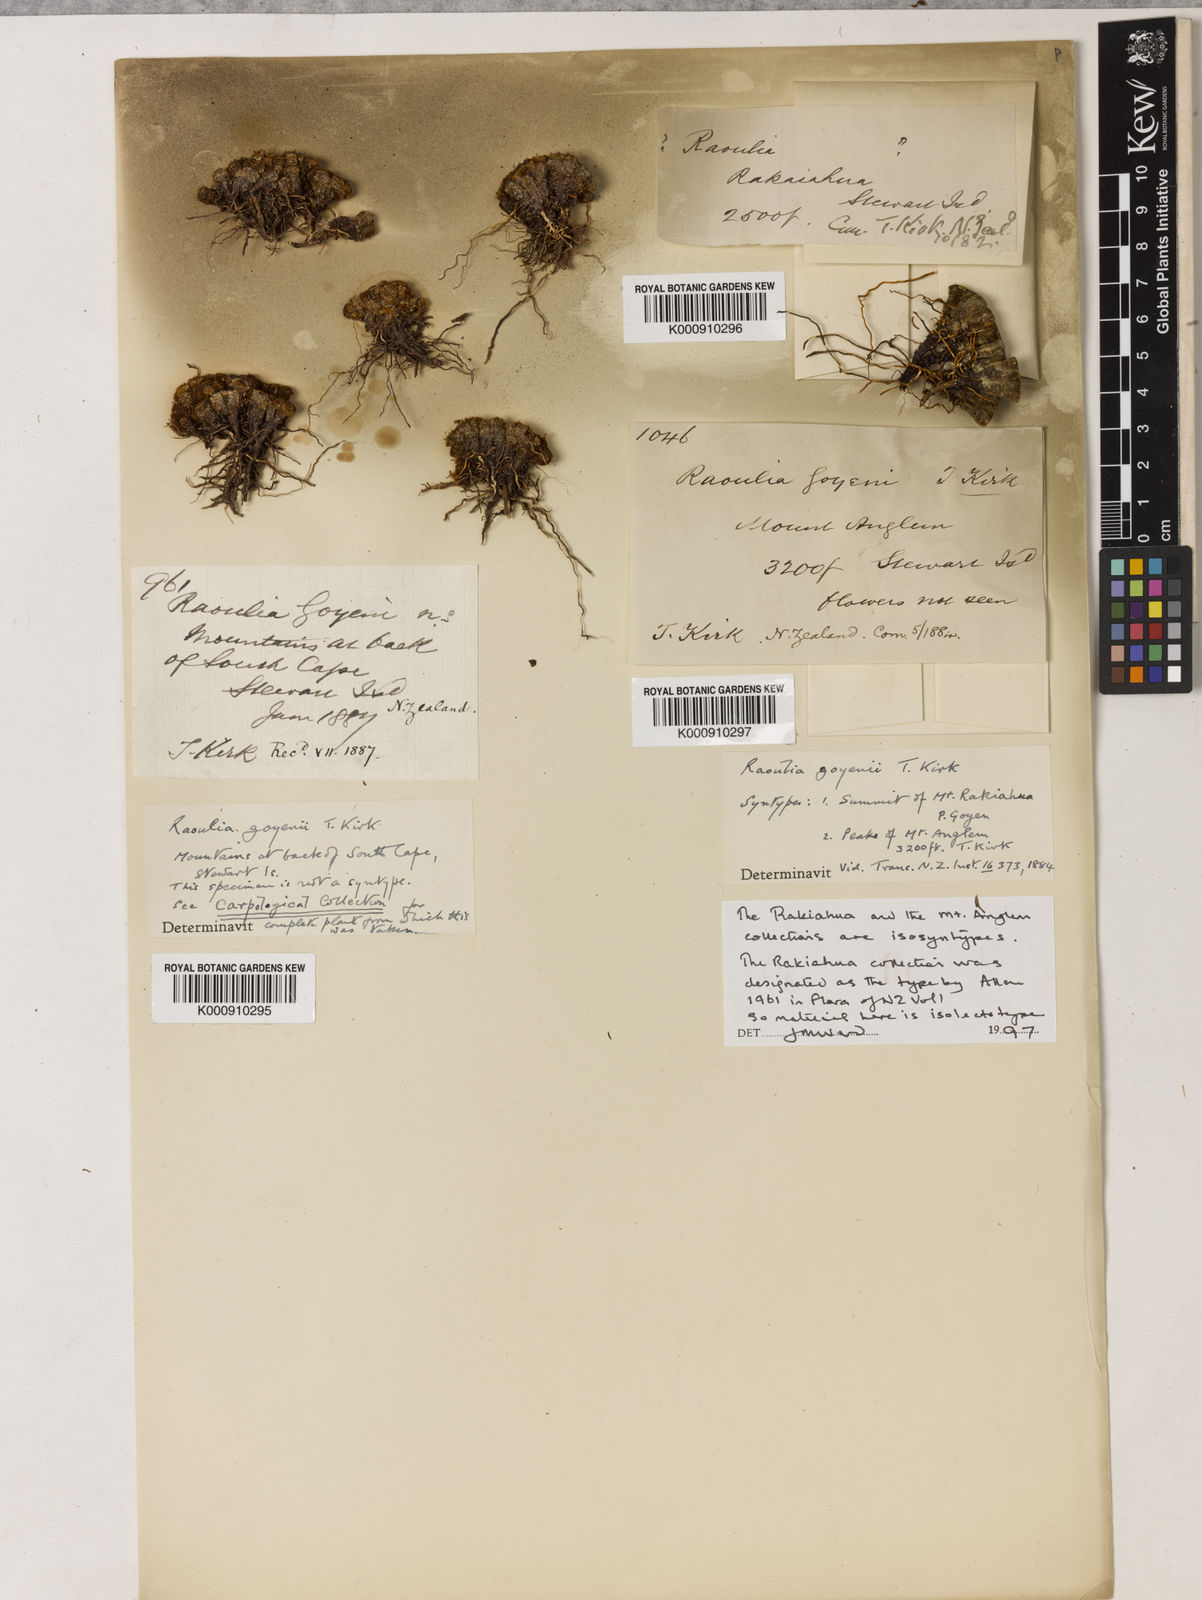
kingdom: Plantae
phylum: Tracheophyta
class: Magnoliopsida
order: Asterales
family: Asteraceae
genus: Raoulia
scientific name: Raoulia goyenii
